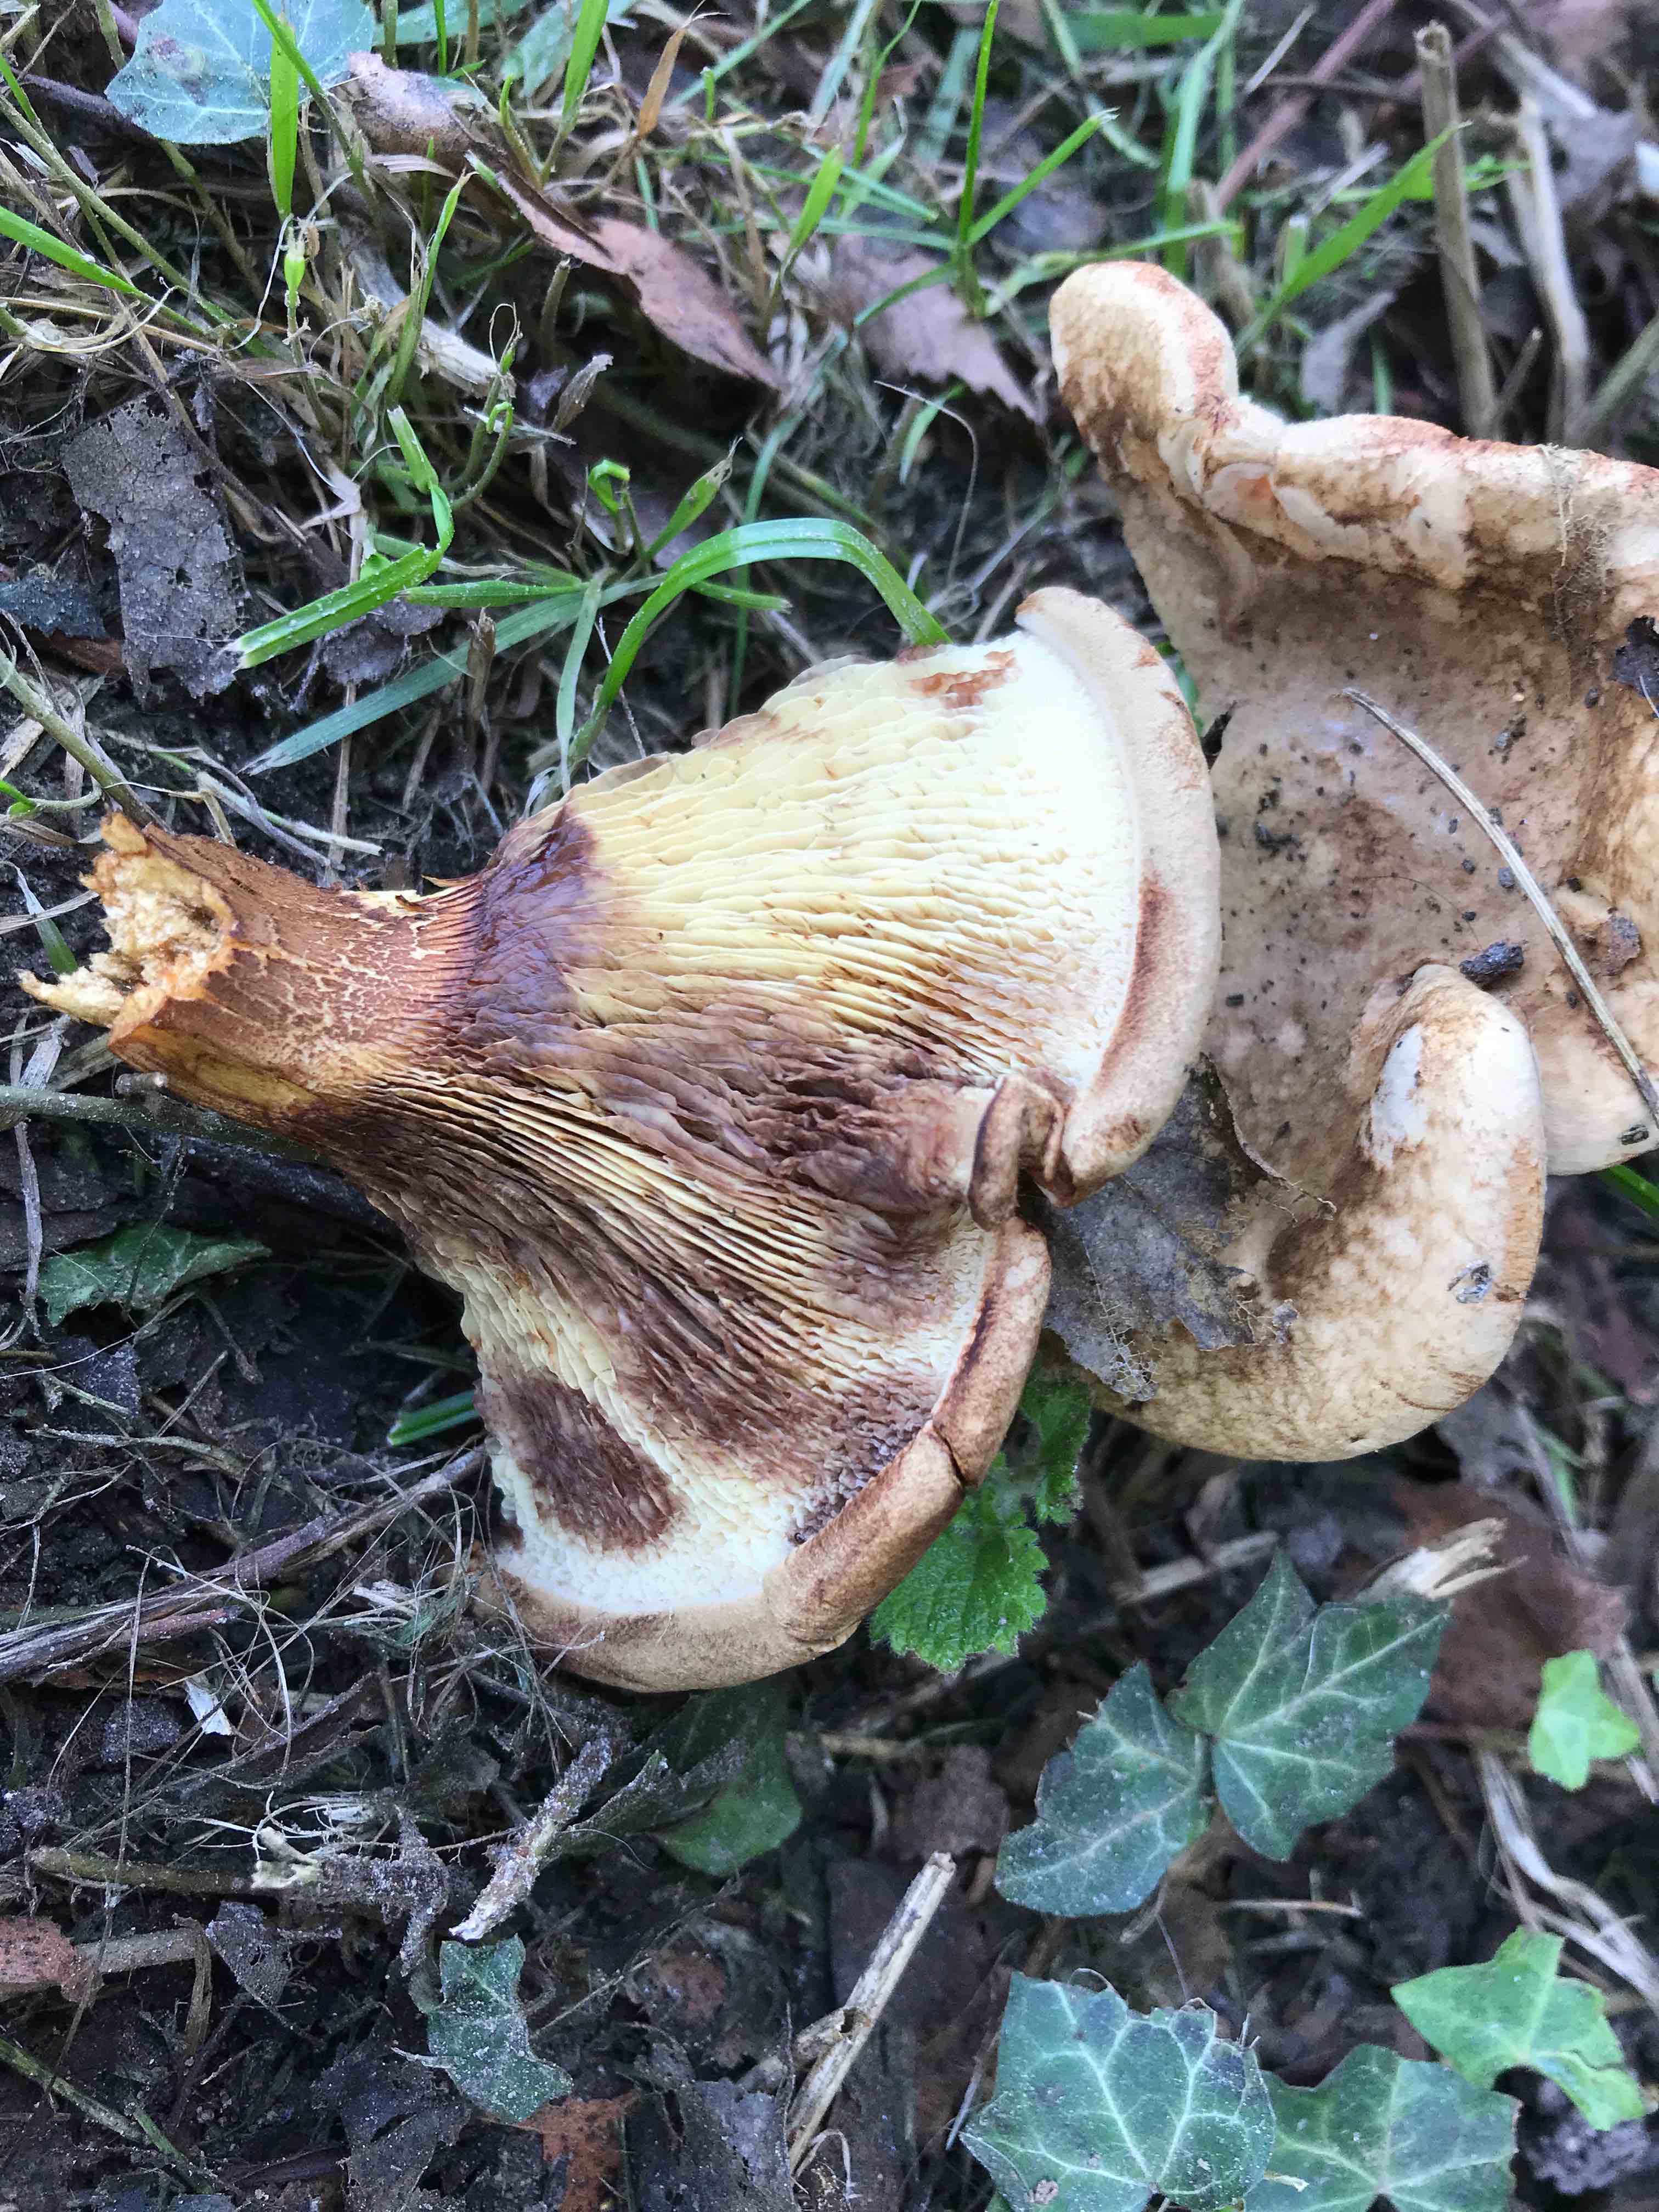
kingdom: Fungi
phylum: Basidiomycota
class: Agaricomycetes
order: Boletales
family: Paxillaceae
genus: Paxillus
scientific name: Paxillus involutus
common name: almindelig netbladhat
